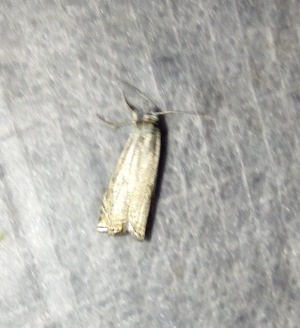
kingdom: Animalia
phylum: Arthropoda
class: Insecta
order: Lepidoptera
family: Crambidae
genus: Crambus
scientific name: Crambus nemorella
